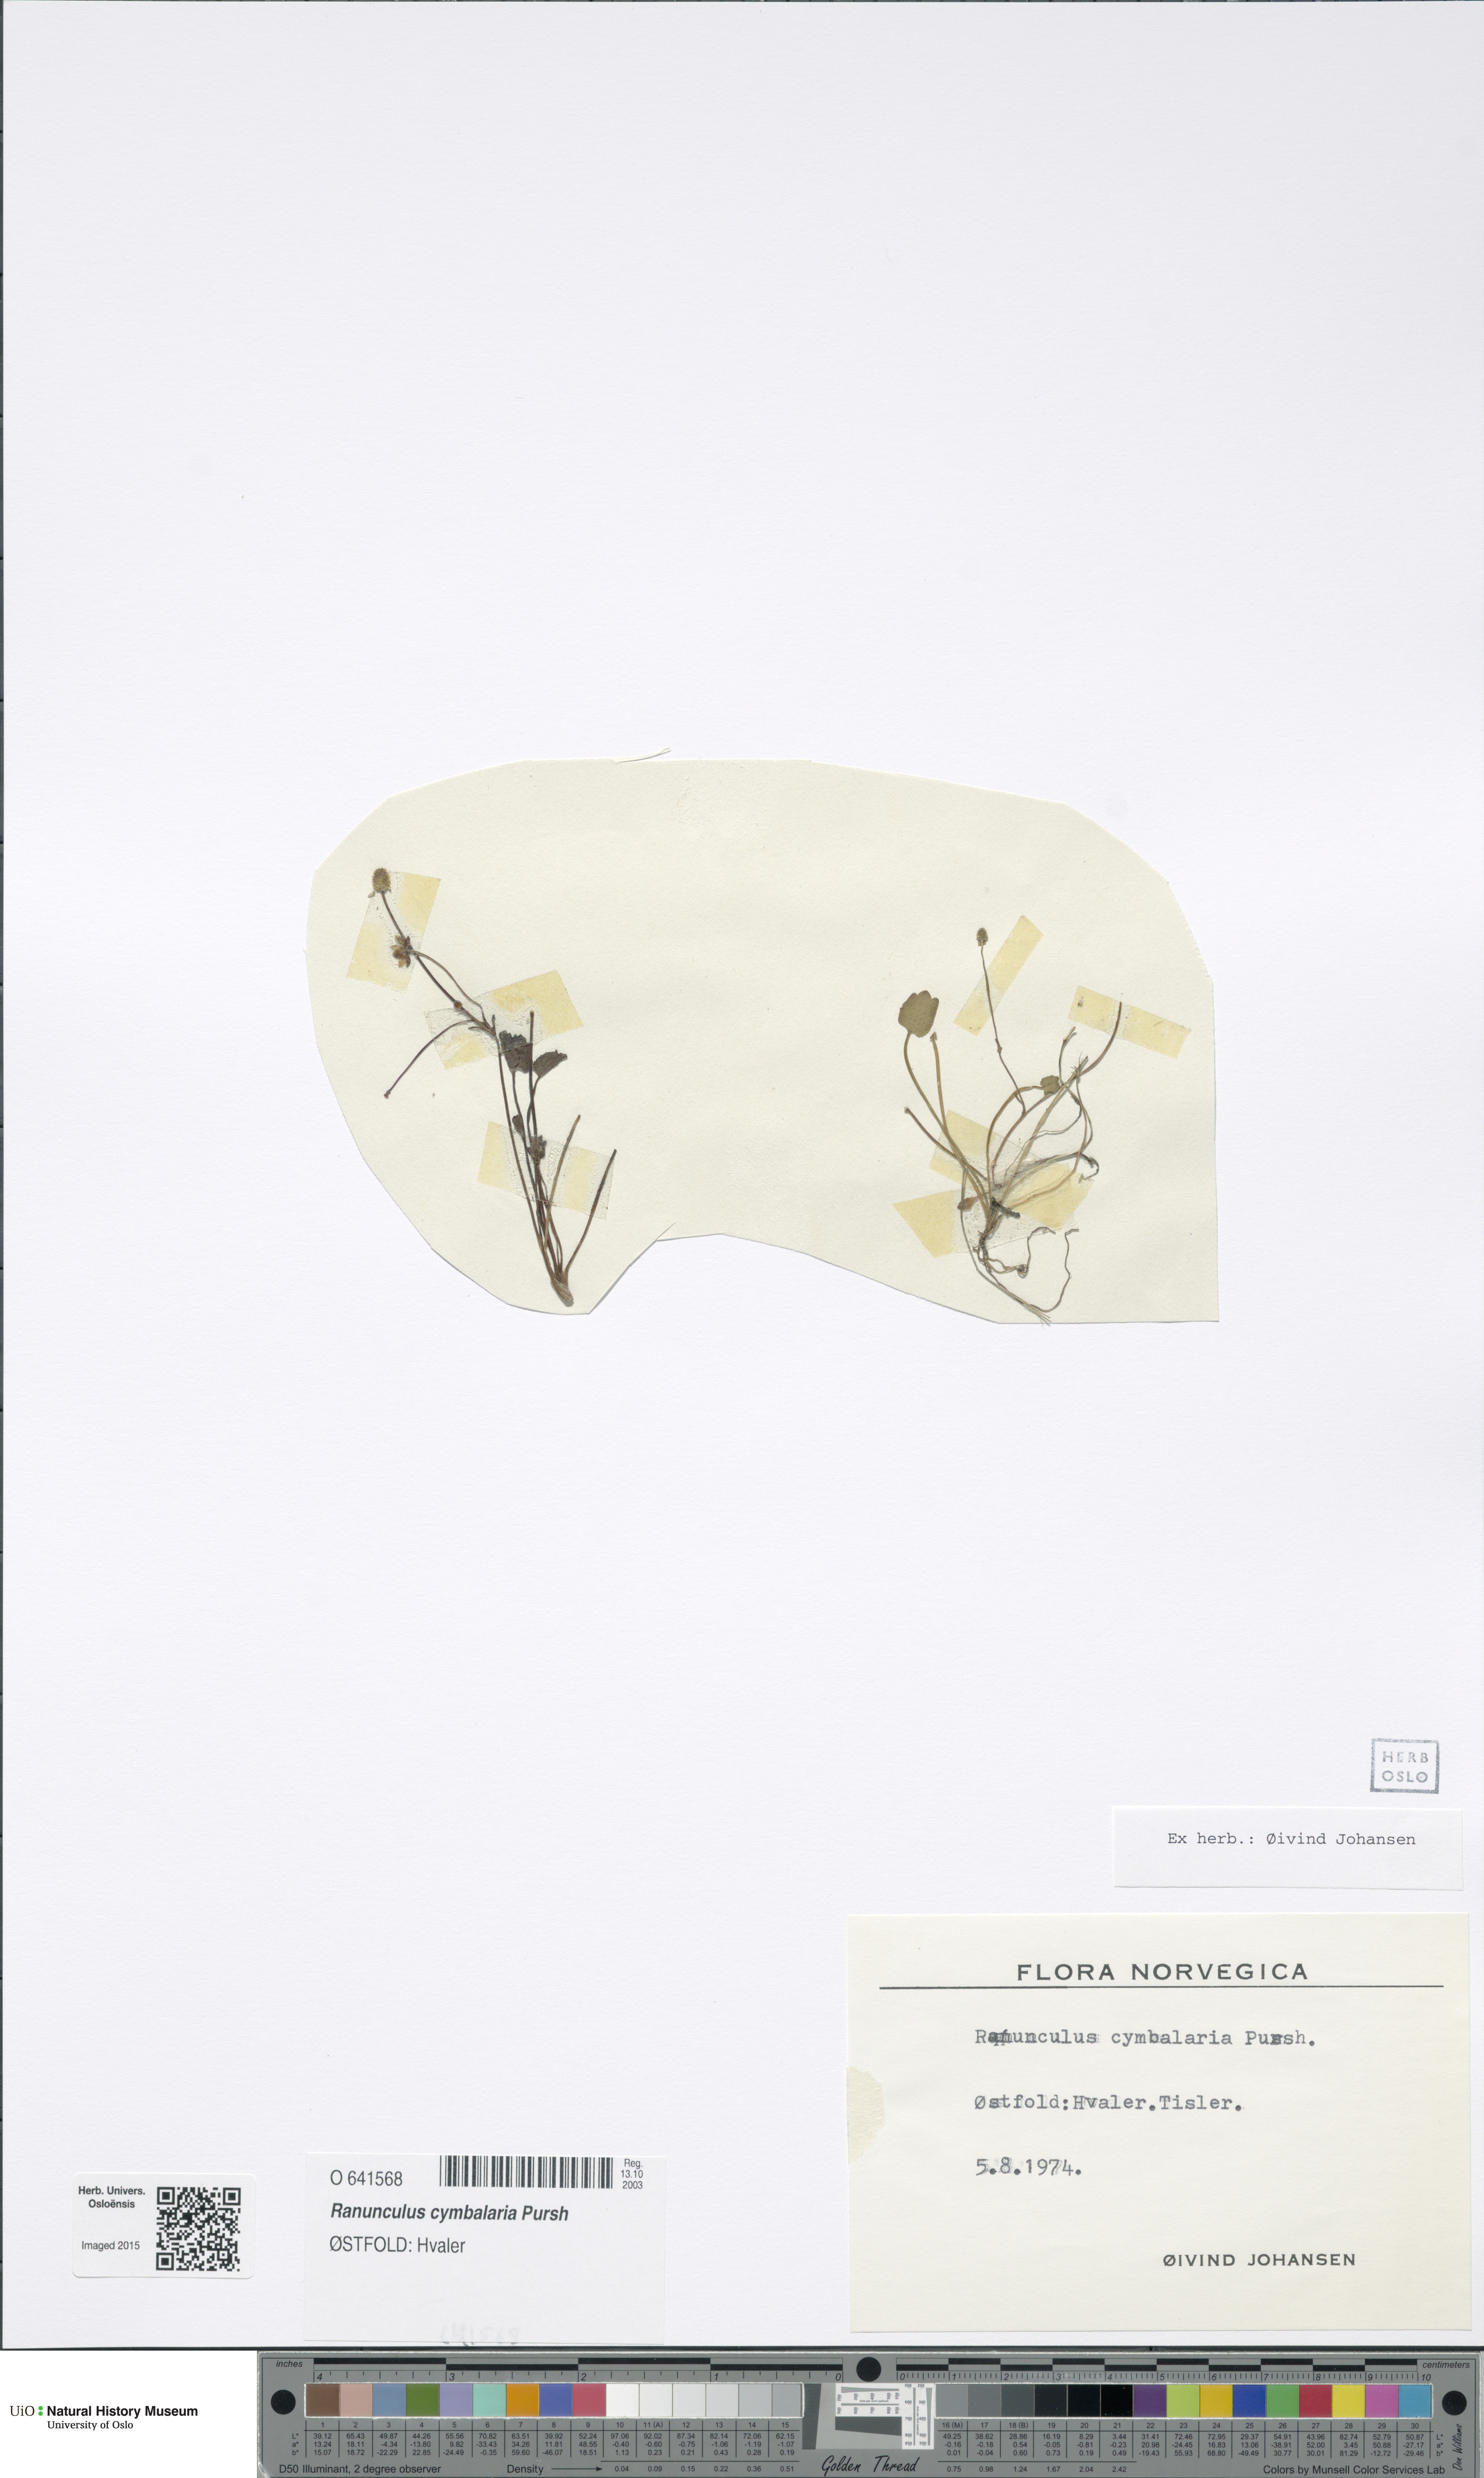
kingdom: Plantae
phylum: Tracheophyta
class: Magnoliopsida
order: Ranunculales
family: Ranunculaceae
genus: Halerpestes
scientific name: Halerpestes cymbalaria
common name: Seaside crowfoot
